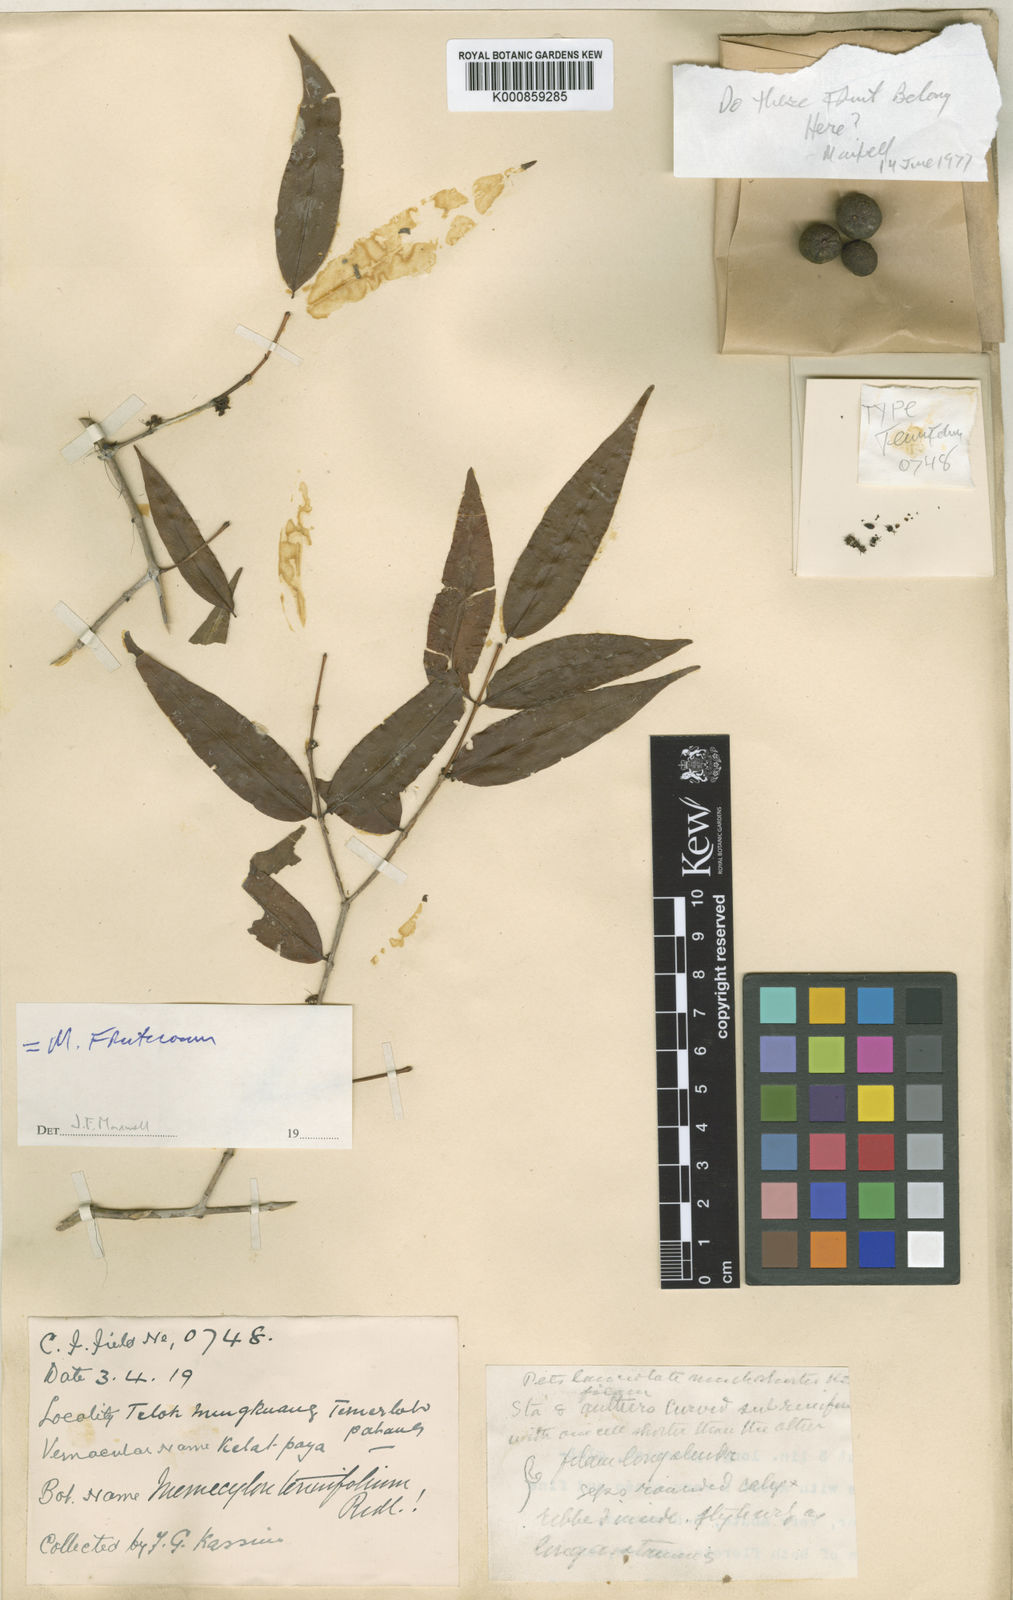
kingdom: Plantae
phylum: Tracheophyta
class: Magnoliopsida
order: Myrtales
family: Melastomataceae
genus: Memecylon
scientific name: Memecylon fruticosum
